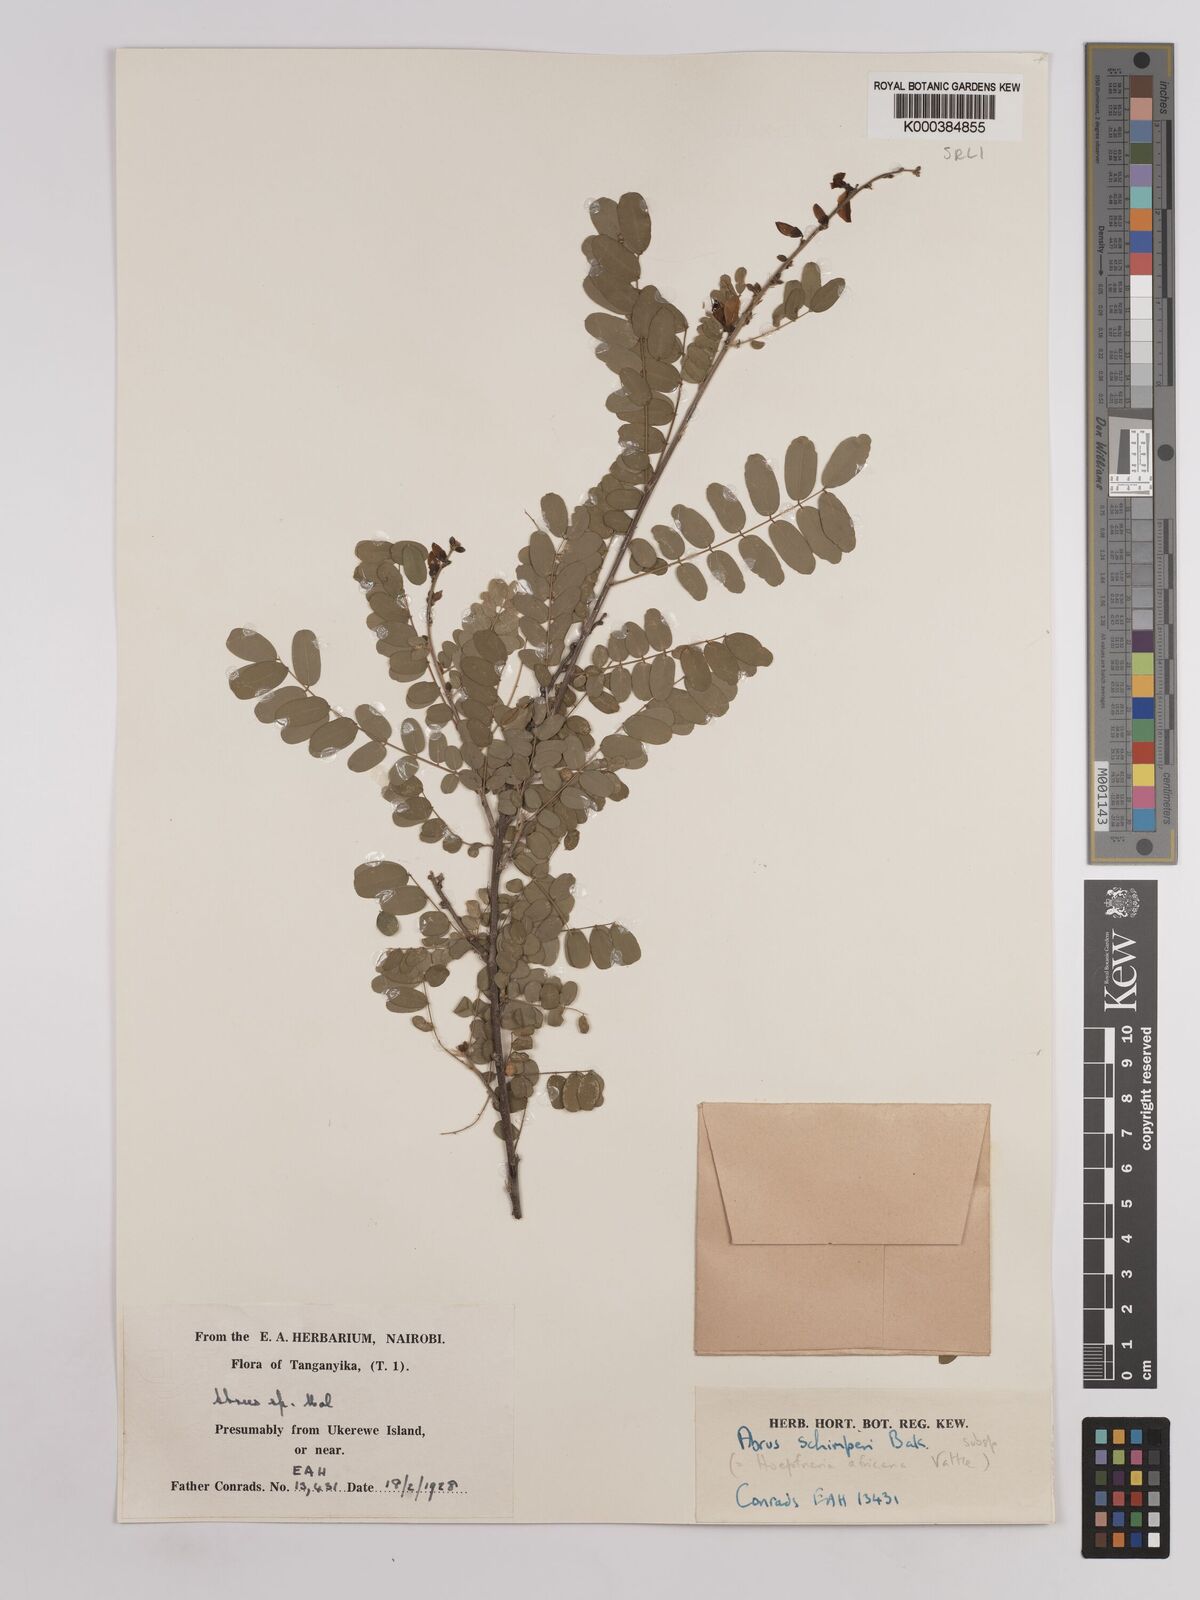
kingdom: Plantae
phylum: Tracheophyta
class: Magnoliopsida
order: Fabales
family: Fabaceae
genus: Abrus
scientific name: Abrus fruticulosus
